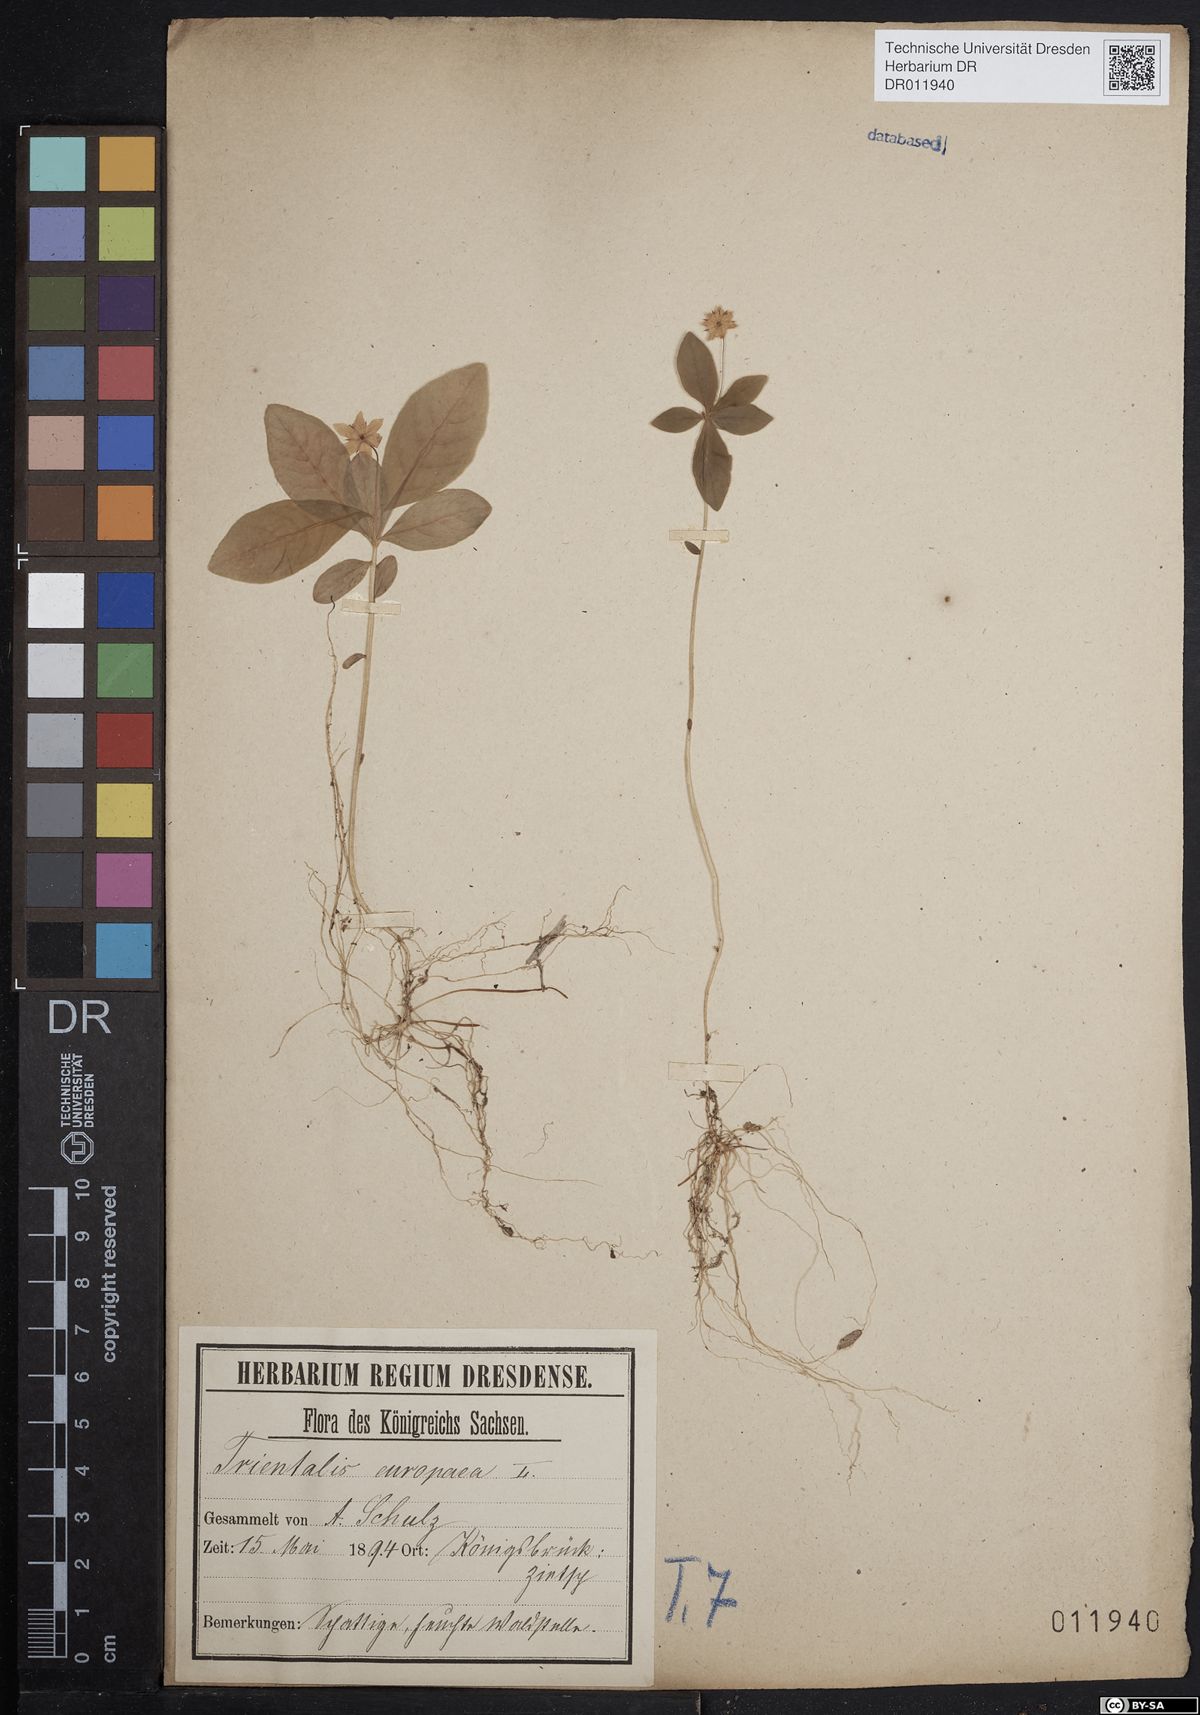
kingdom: Plantae
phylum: Tracheophyta
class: Magnoliopsida
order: Ericales
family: Primulaceae
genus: Lysimachia
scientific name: Lysimachia europaea
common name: Arctic starflower
